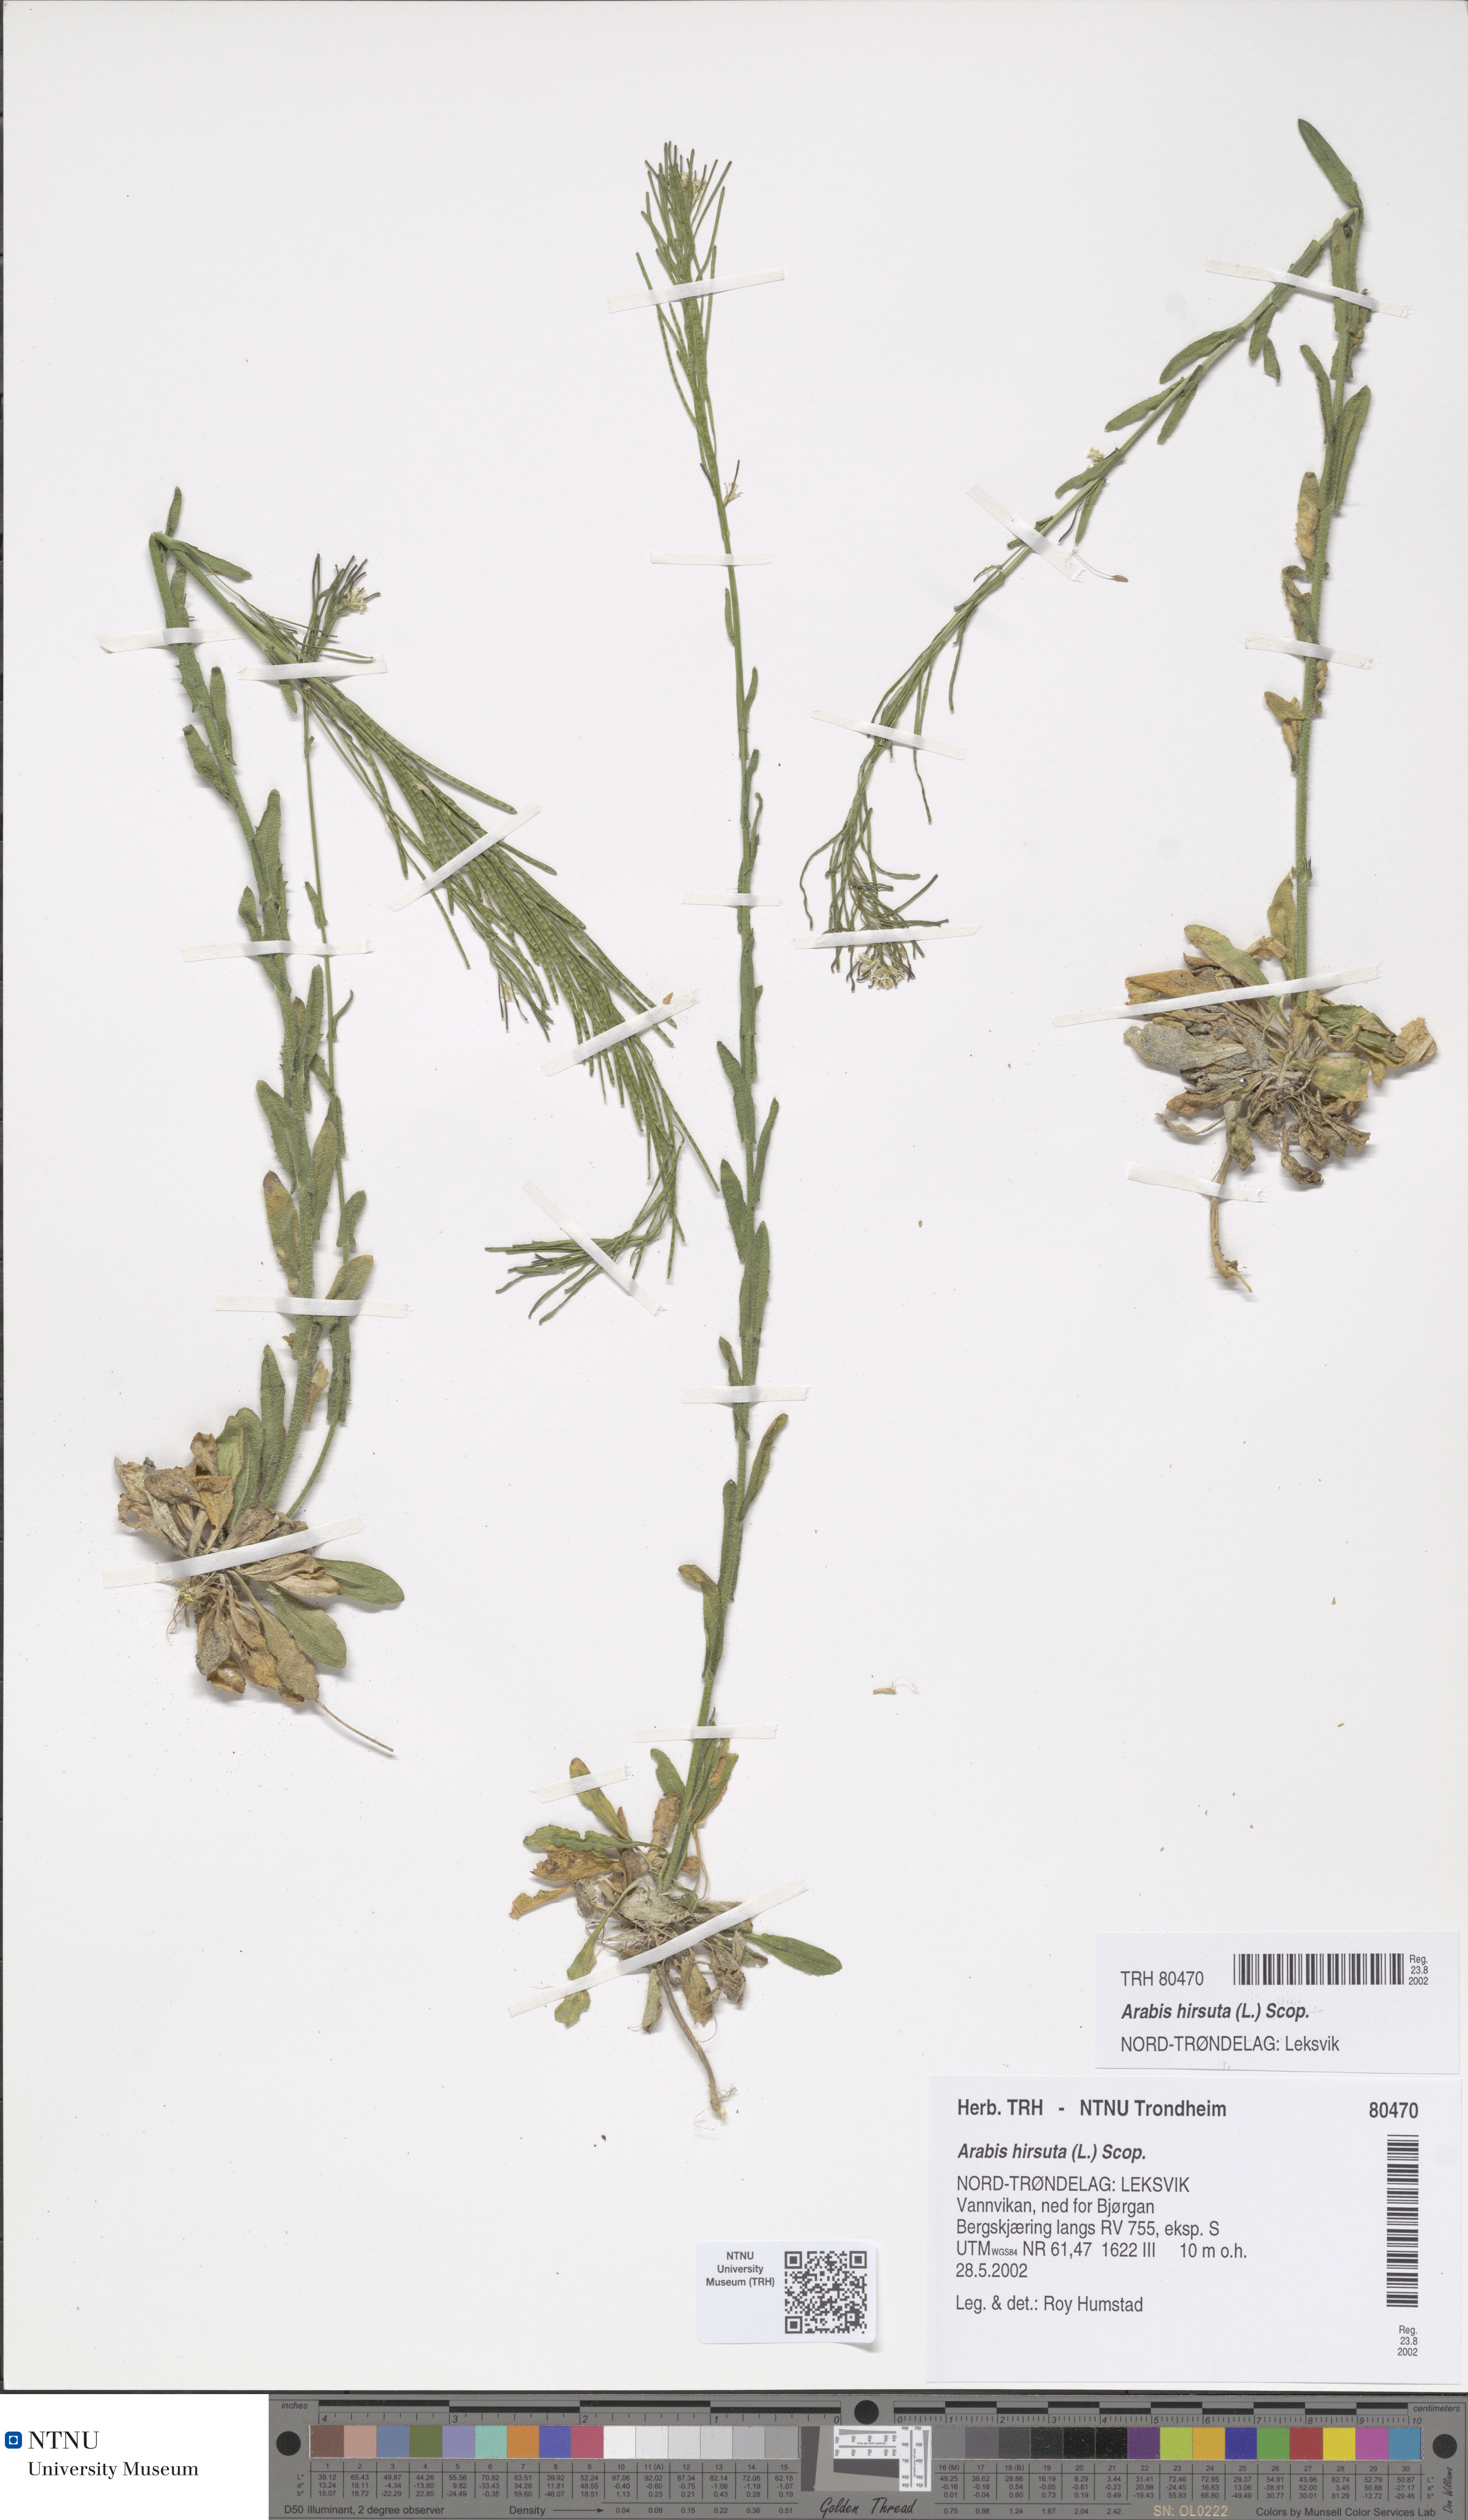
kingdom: Plantae
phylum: Tracheophyta
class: Magnoliopsida
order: Brassicales
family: Brassicaceae
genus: Arabis
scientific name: Arabis hirsuta
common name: Hairy rock-cress
